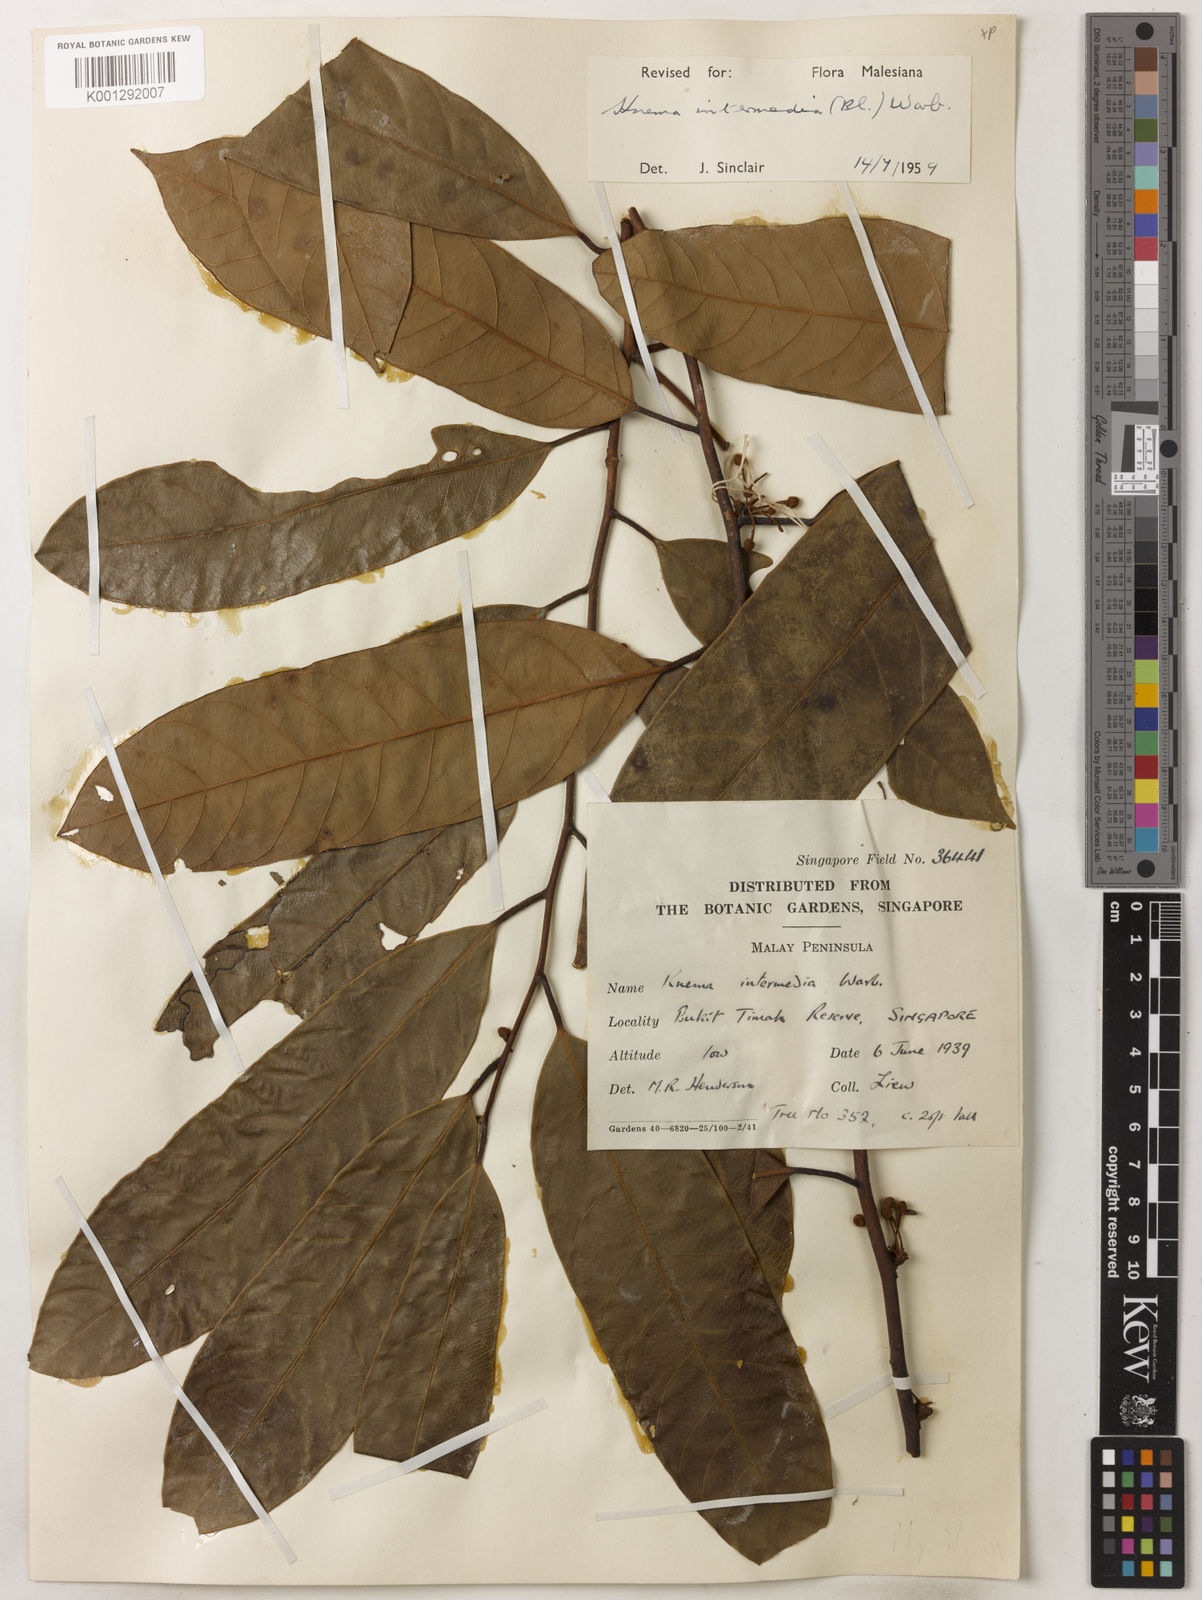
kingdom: Plantae
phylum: Tracheophyta
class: Magnoliopsida
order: Magnoliales
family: Myristicaceae
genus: Knema
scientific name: Knema intermedia
